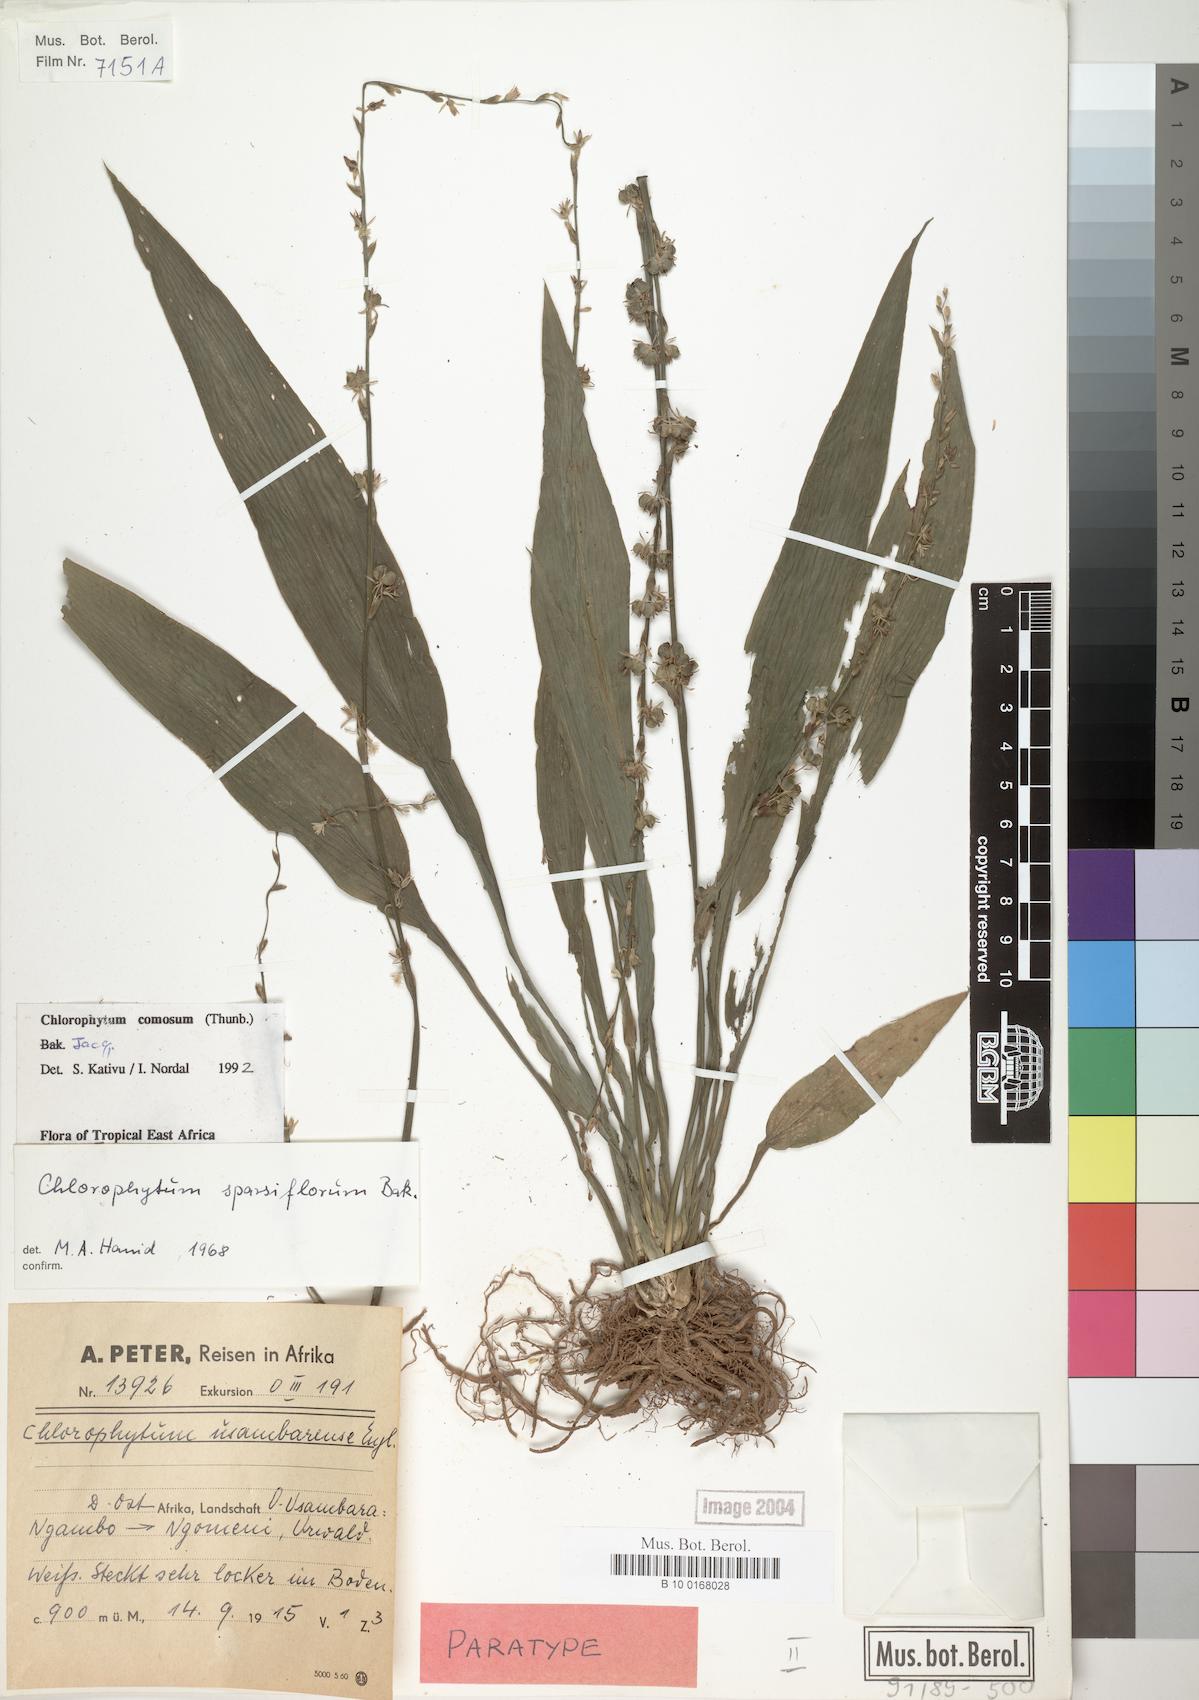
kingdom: Plantae
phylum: Tracheophyta
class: Liliopsida
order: Asparagales
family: Asparagaceae
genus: Chlorophytum
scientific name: Chlorophytum comosum
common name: Spider plant
